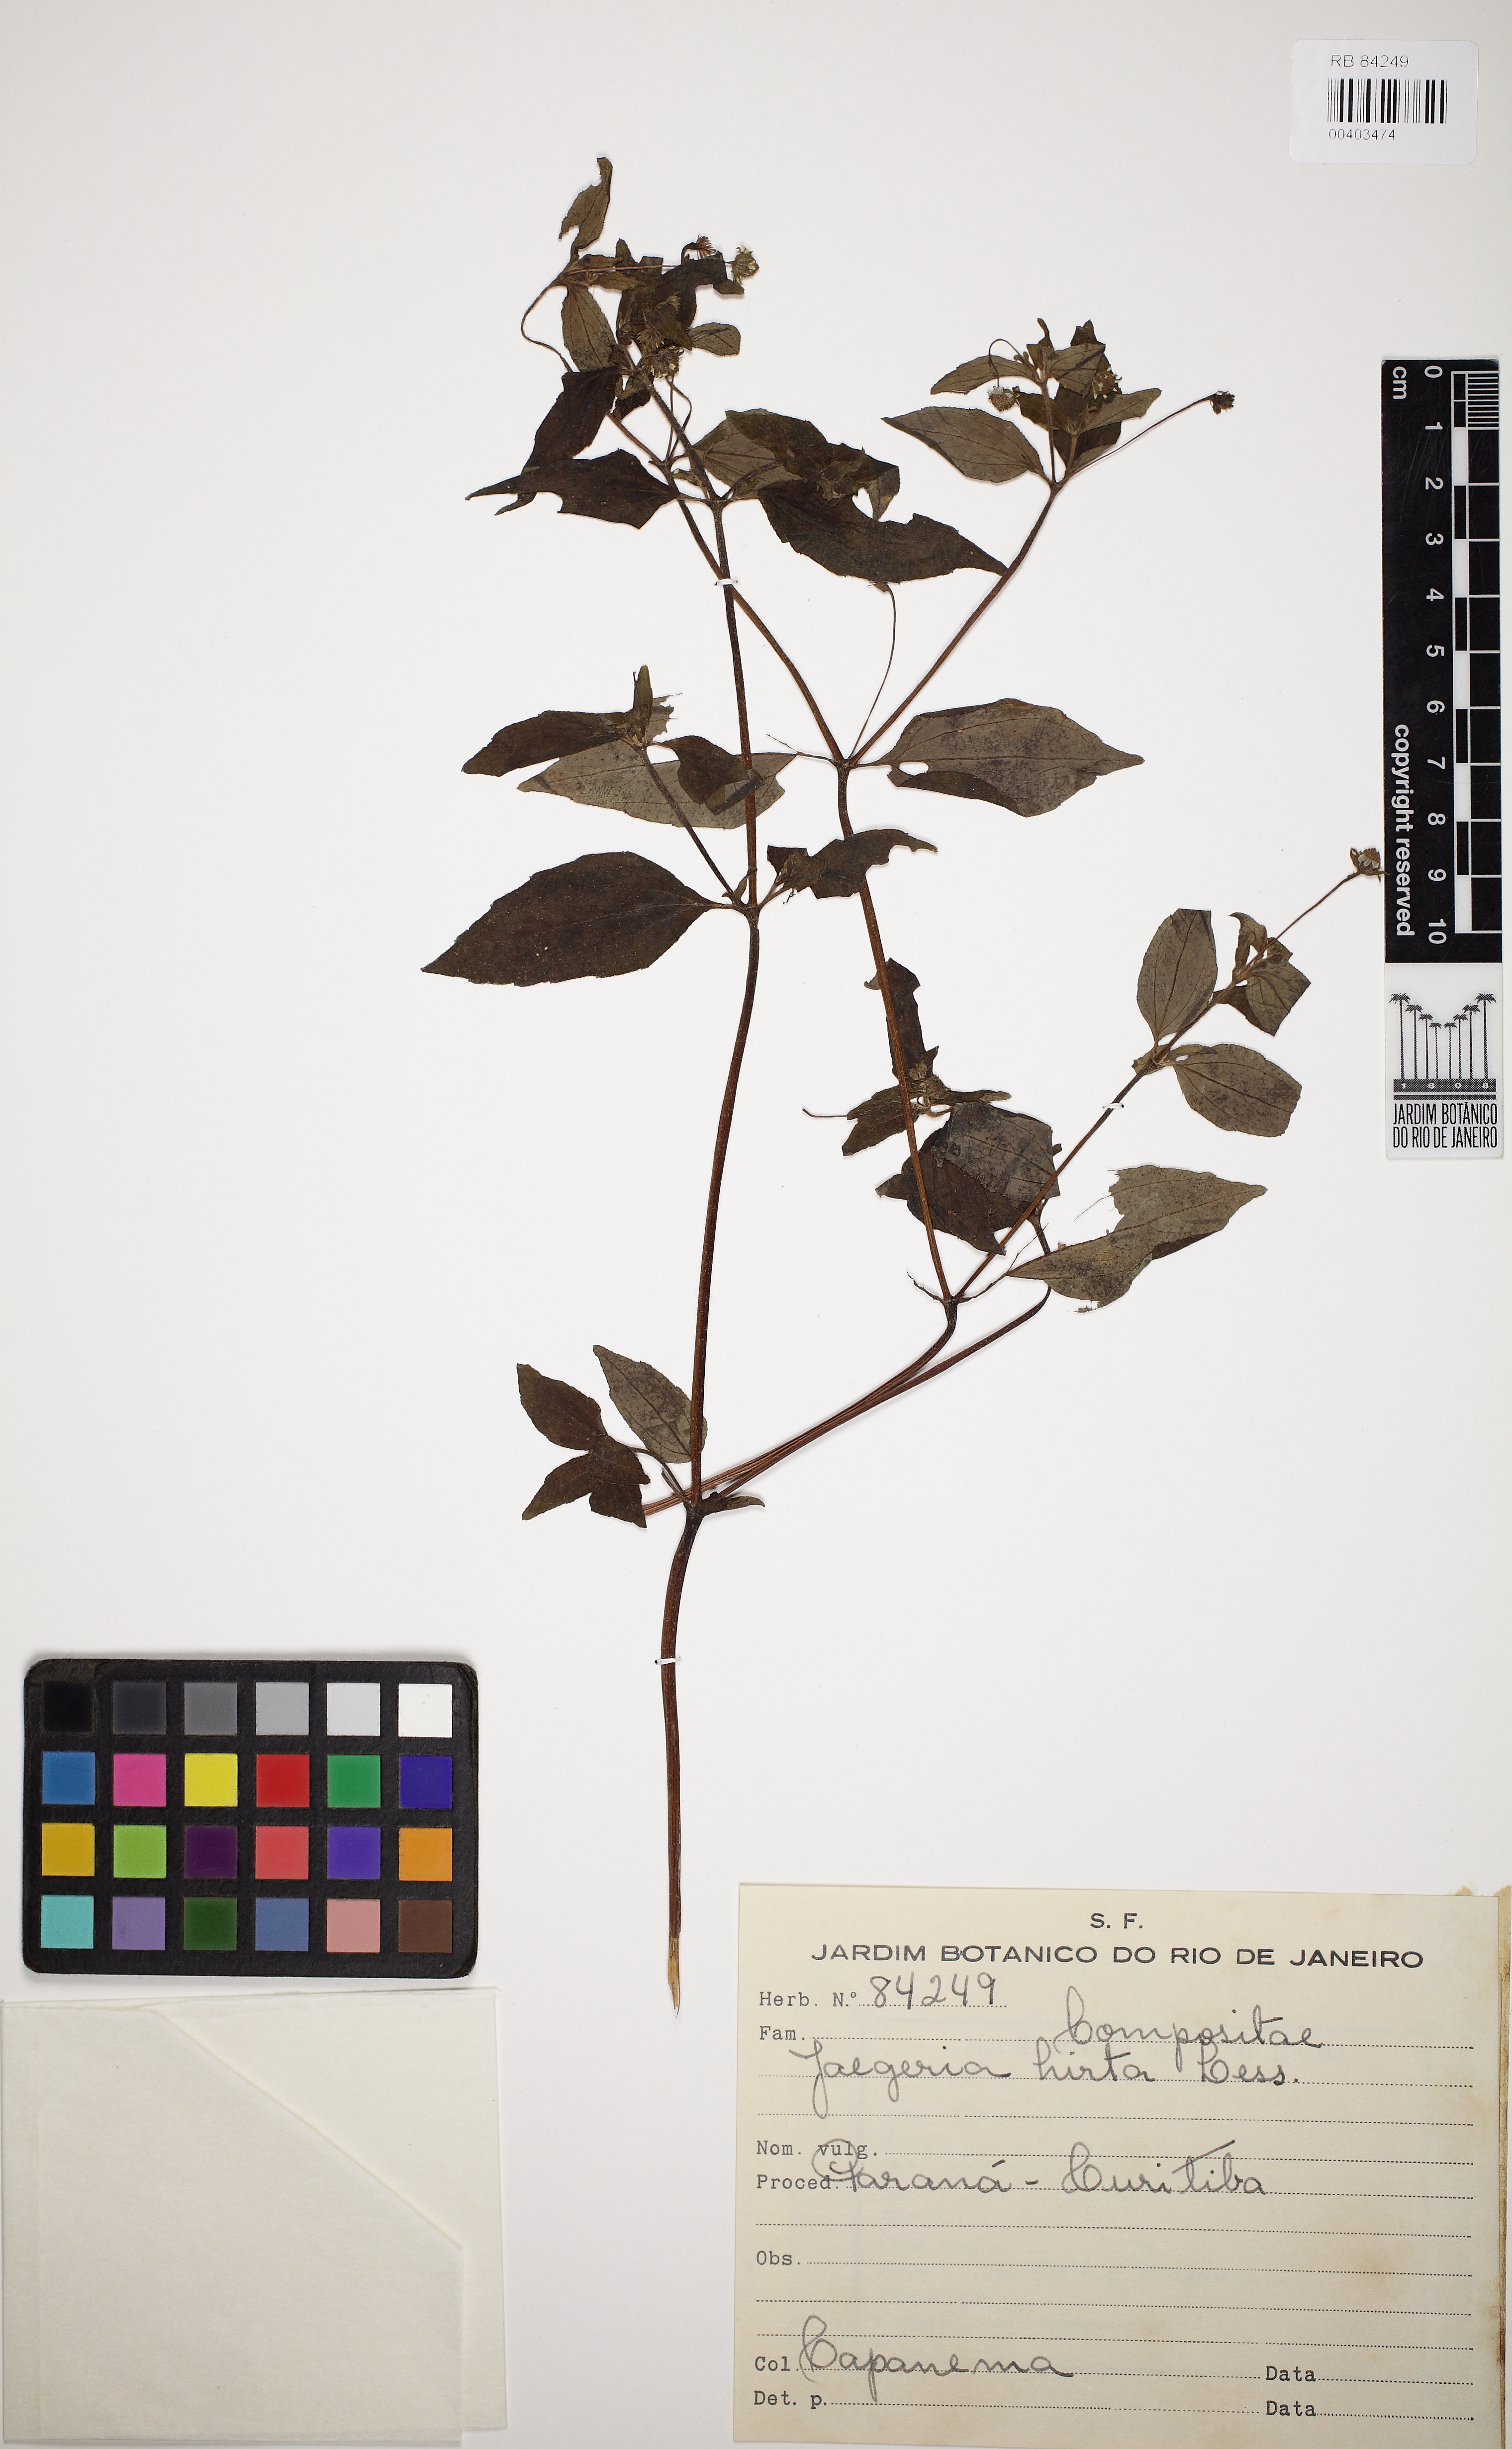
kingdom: Plantae
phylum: Tracheophyta
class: Magnoliopsida
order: Asterales
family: Asteraceae
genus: Jaegeria
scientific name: Jaegeria hirta
